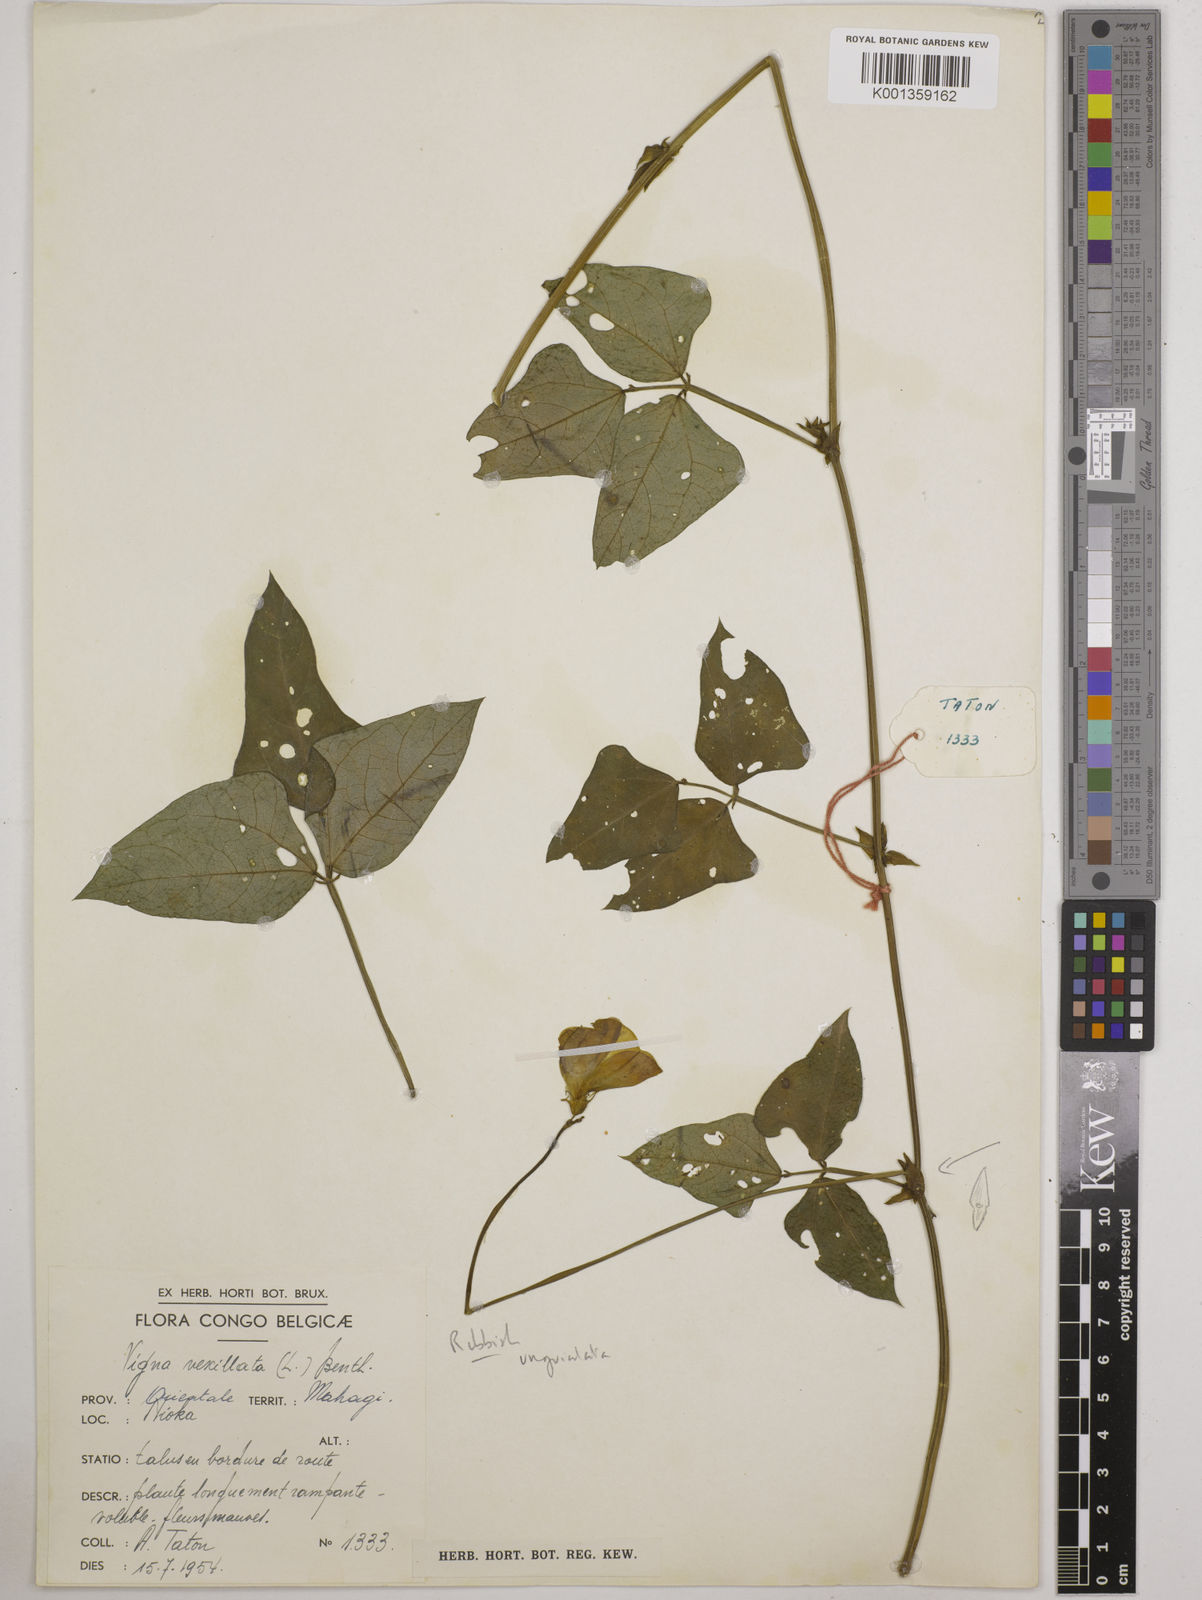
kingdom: Plantae
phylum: Tracheophyta
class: Magnoliopsida
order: Fabales
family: Fabaceae
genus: Vigna
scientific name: Vigna
